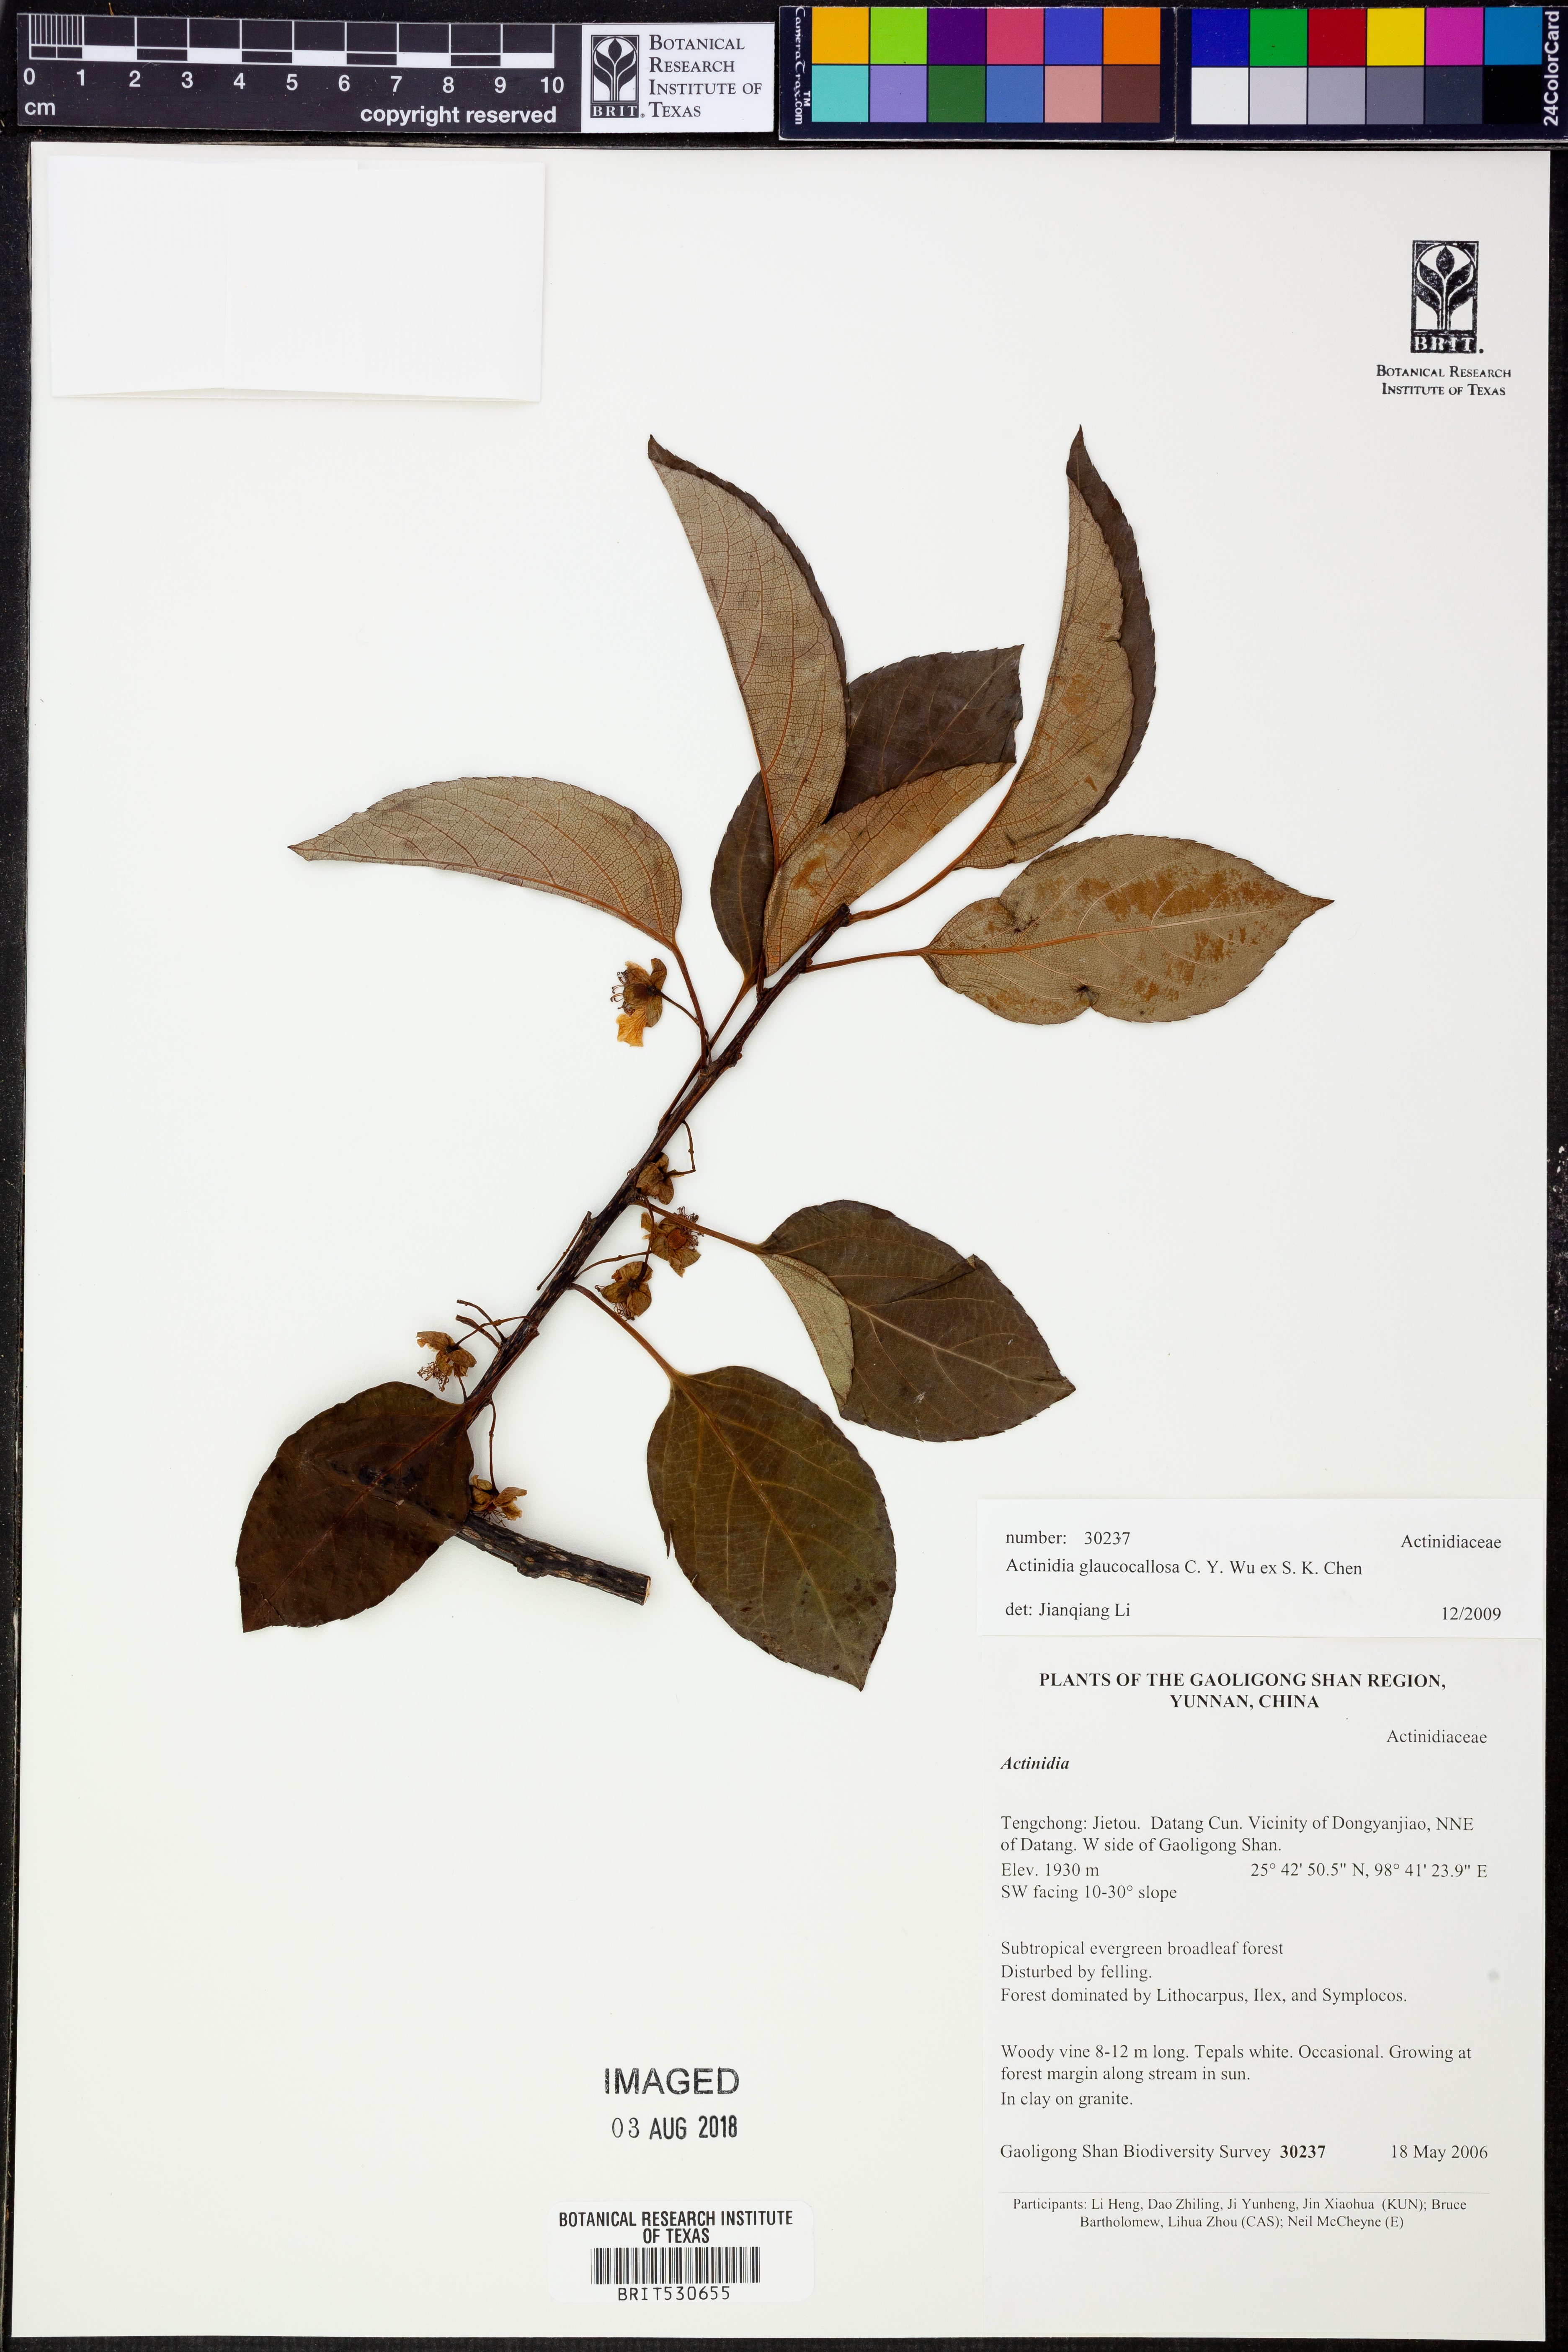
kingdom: Plantae
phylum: Tracheophyta
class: Magnoliopsida
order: Ericales
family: Actinidiaceae
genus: Actinidia
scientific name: Actinidia glaucocallosa
